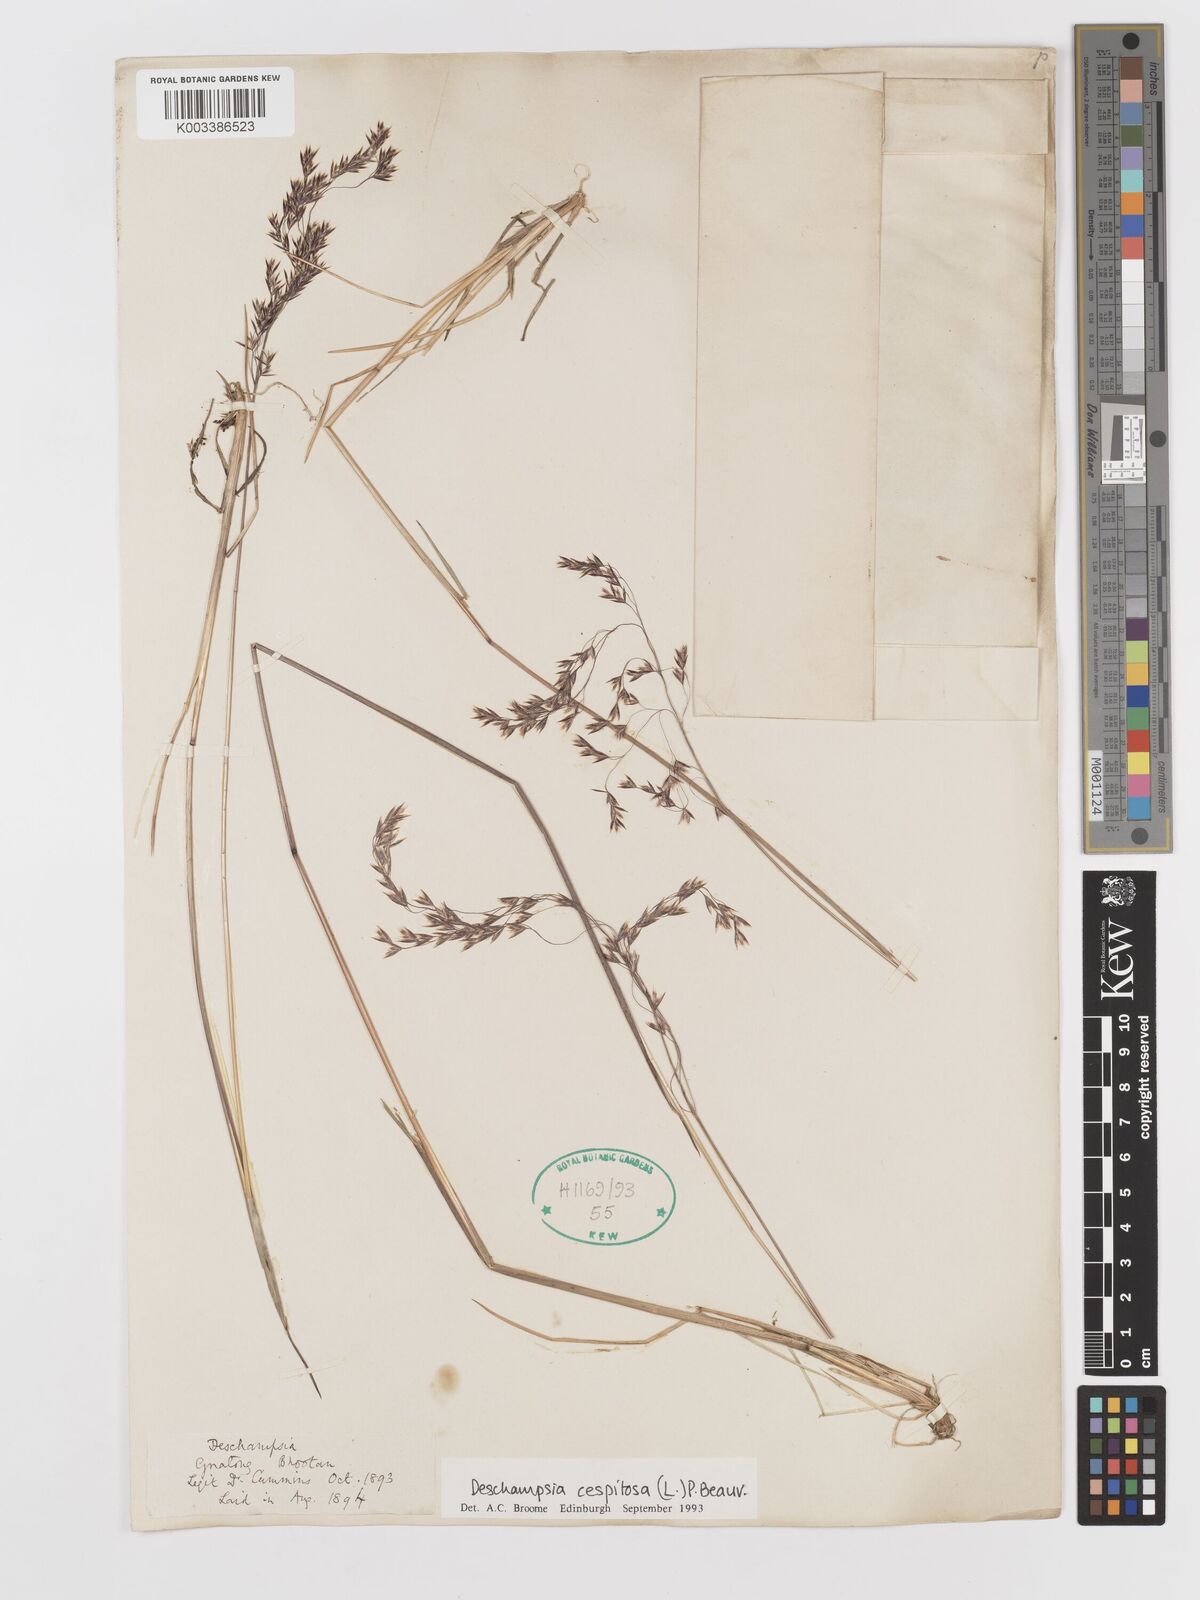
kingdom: Plantae
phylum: Tracheophyta
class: Liliopsida
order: Poales
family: Poaceae
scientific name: Poaceae
